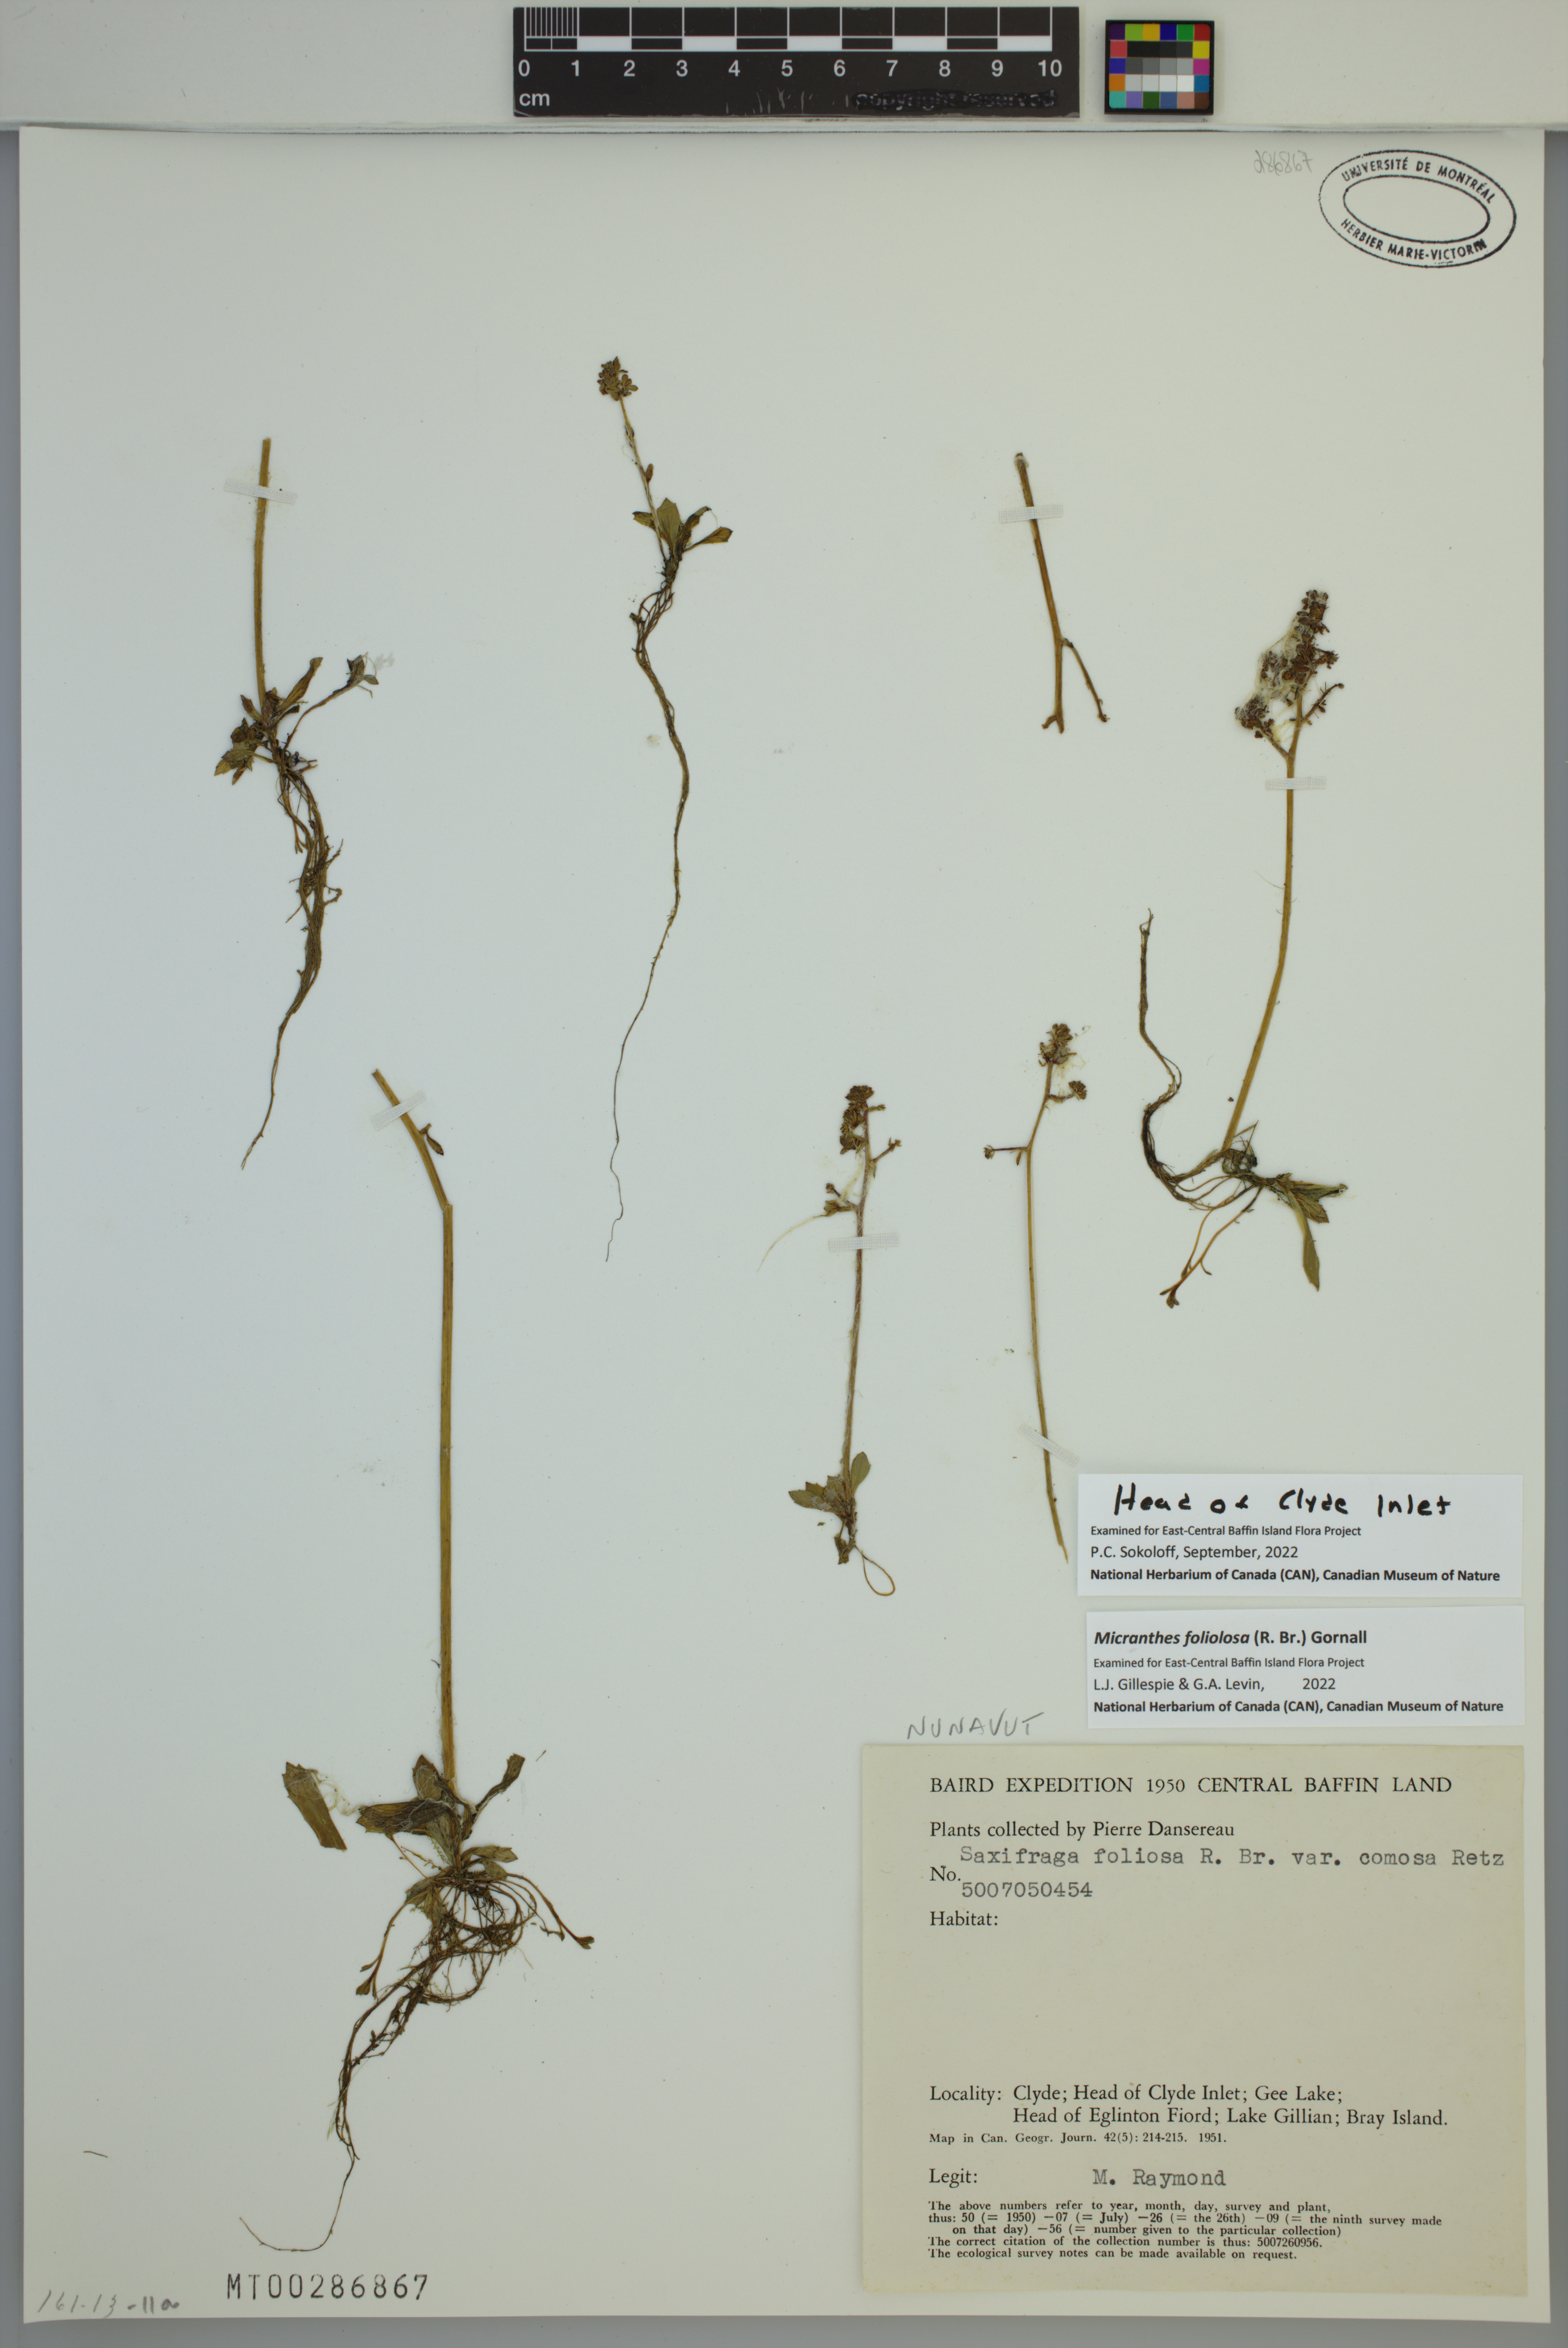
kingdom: Plantae
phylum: Tracheophyta
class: Magnoliopsida
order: Saxifragales
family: Saxifragaceae
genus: Micranthes
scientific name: Micranthes foliolosa
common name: Leafystem saxifrage
